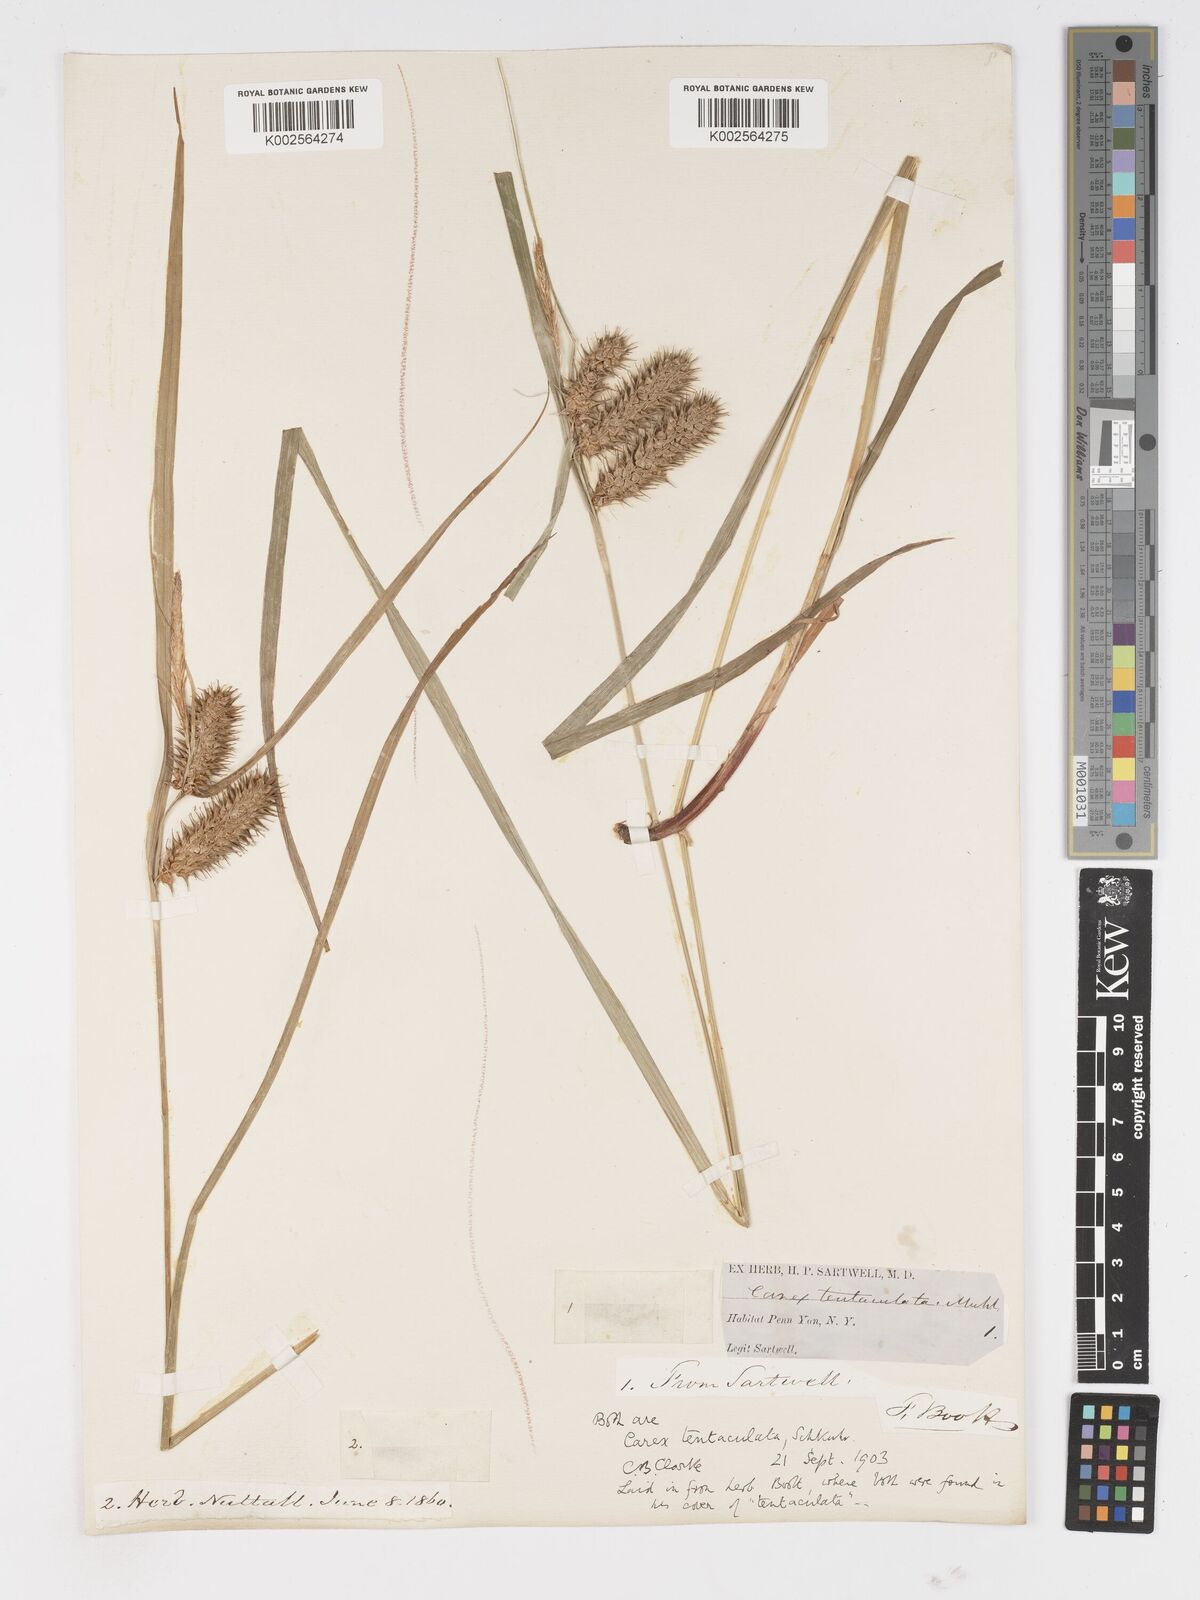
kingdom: Plantae
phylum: Tracheophyta
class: Liliopsida
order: Poales
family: Cyperaceae
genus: Carex
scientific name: Carex lurida
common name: Sallow sedge
